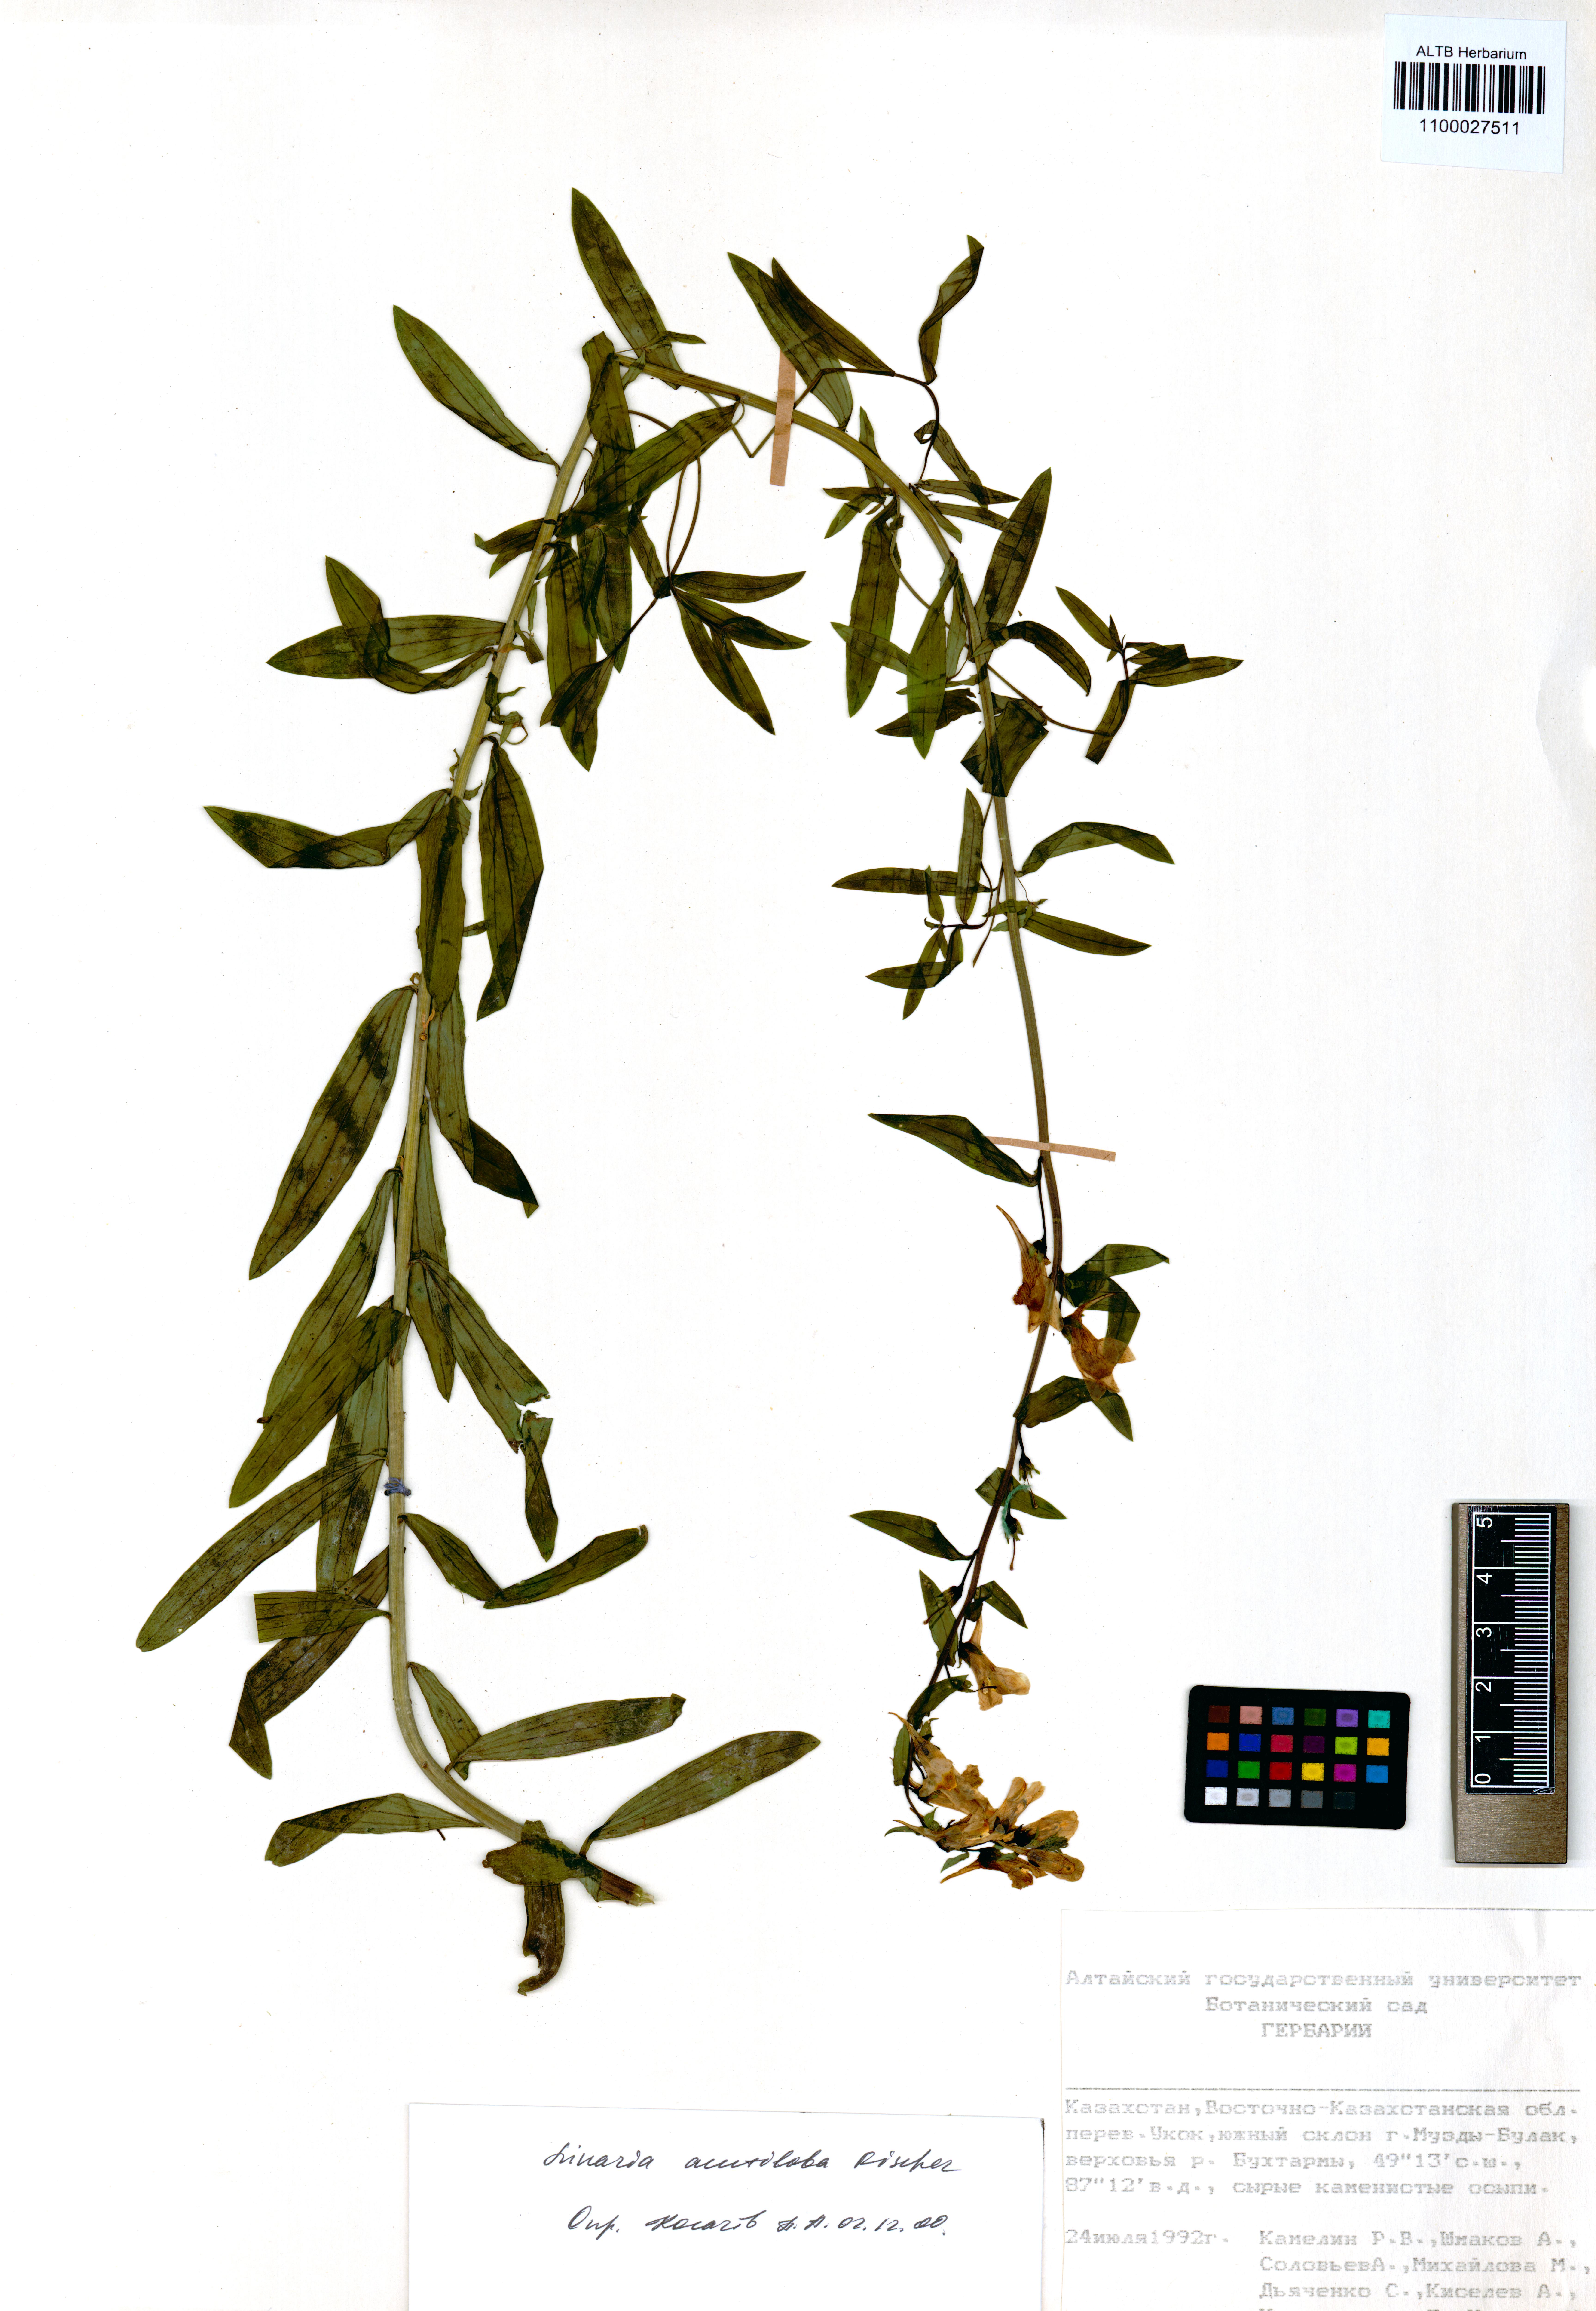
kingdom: Plantae
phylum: Tracheophyta
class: Magnoliopsida
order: Lamiales
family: Plantaginaceae
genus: Linaria
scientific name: Linaria acutiloba
